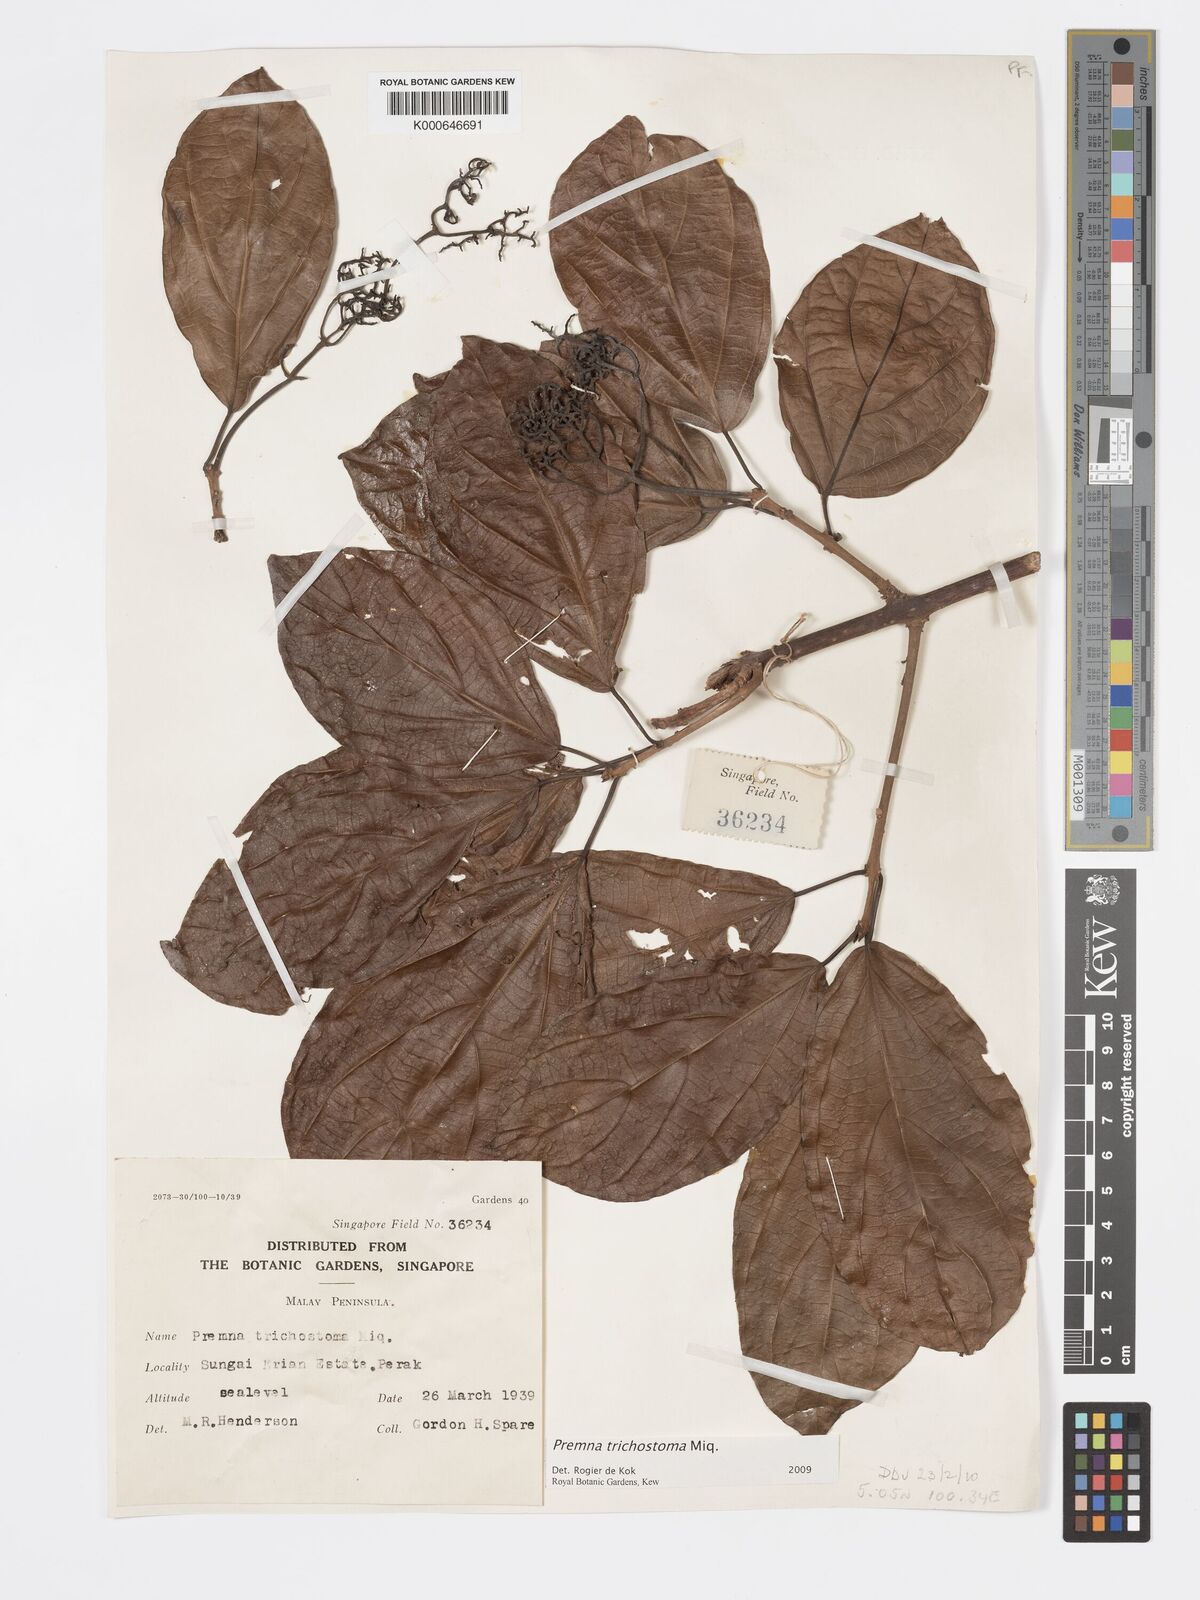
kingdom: Plantae
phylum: Tracheophyta
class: Magnoliopsida
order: Lamiales
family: Lamiaceae
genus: Premna
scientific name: Premna trichostoma
